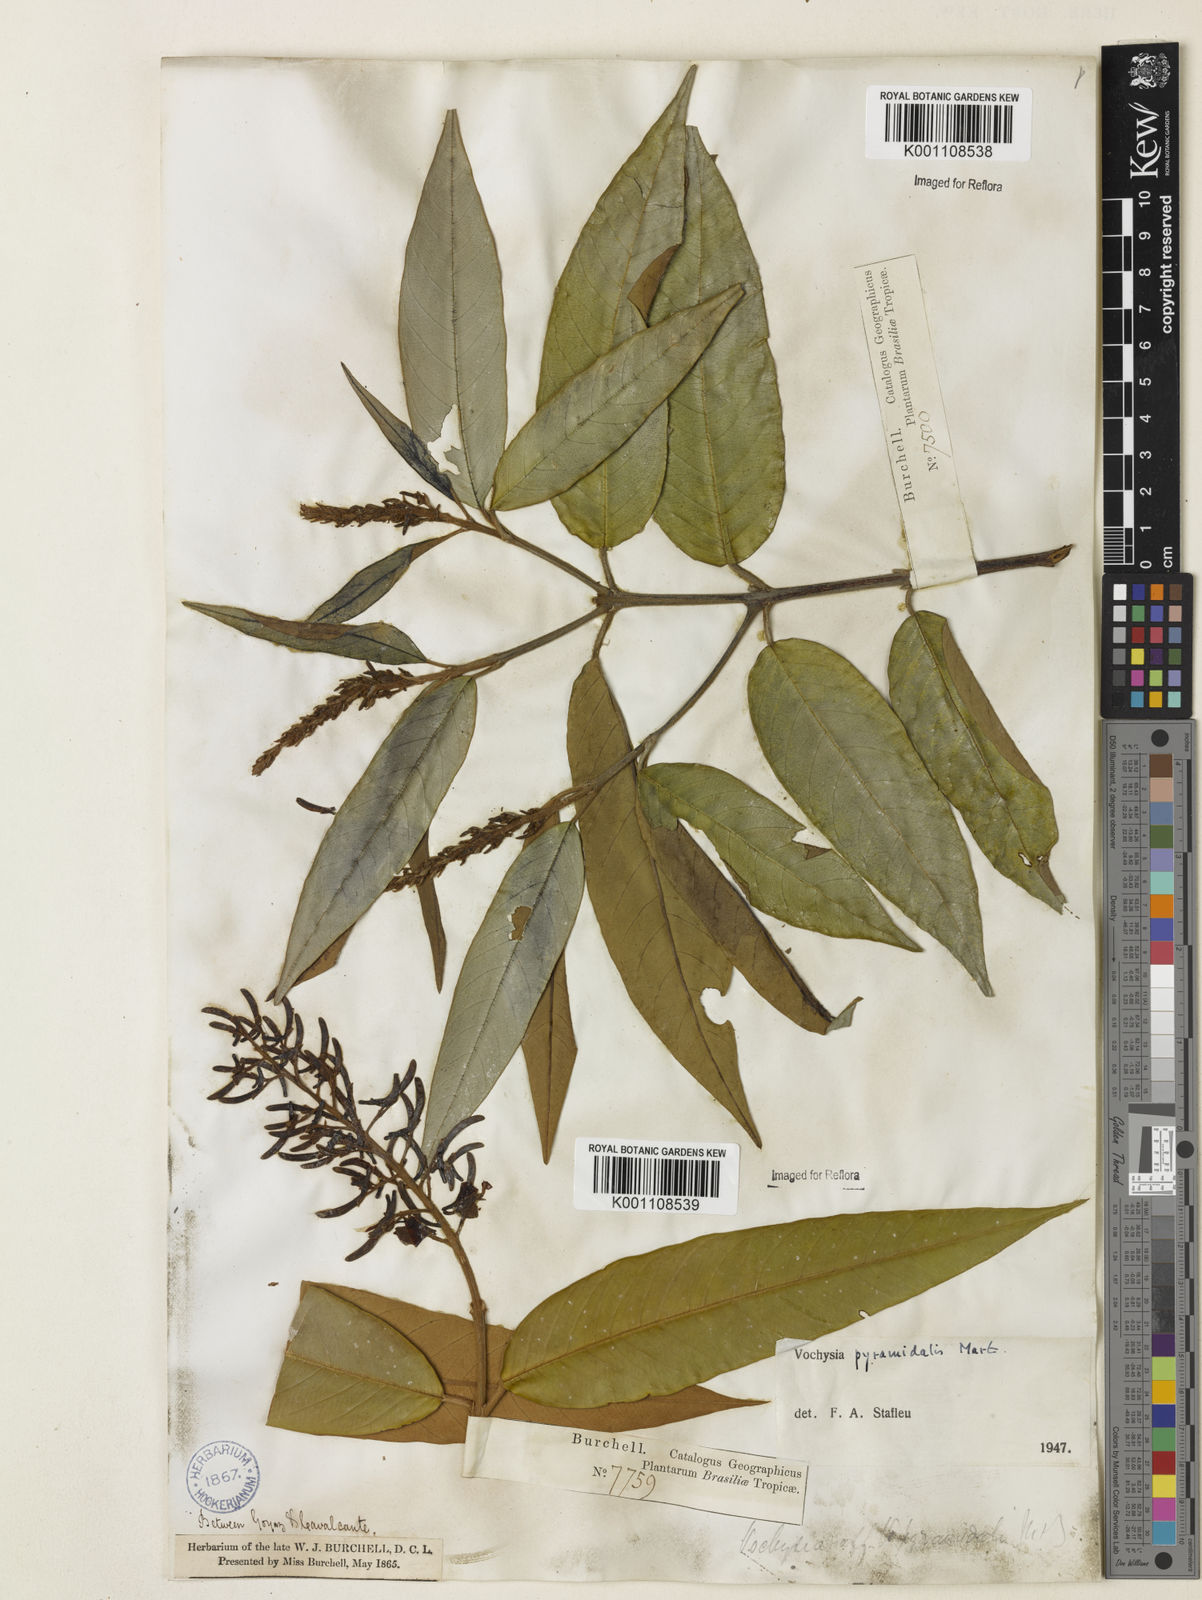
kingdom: Plantae
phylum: Tracheophyta
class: Magnoliopsida
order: Myrtales
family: Vochysiaceae
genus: Vochysia
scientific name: Vochysia pyramidalis
